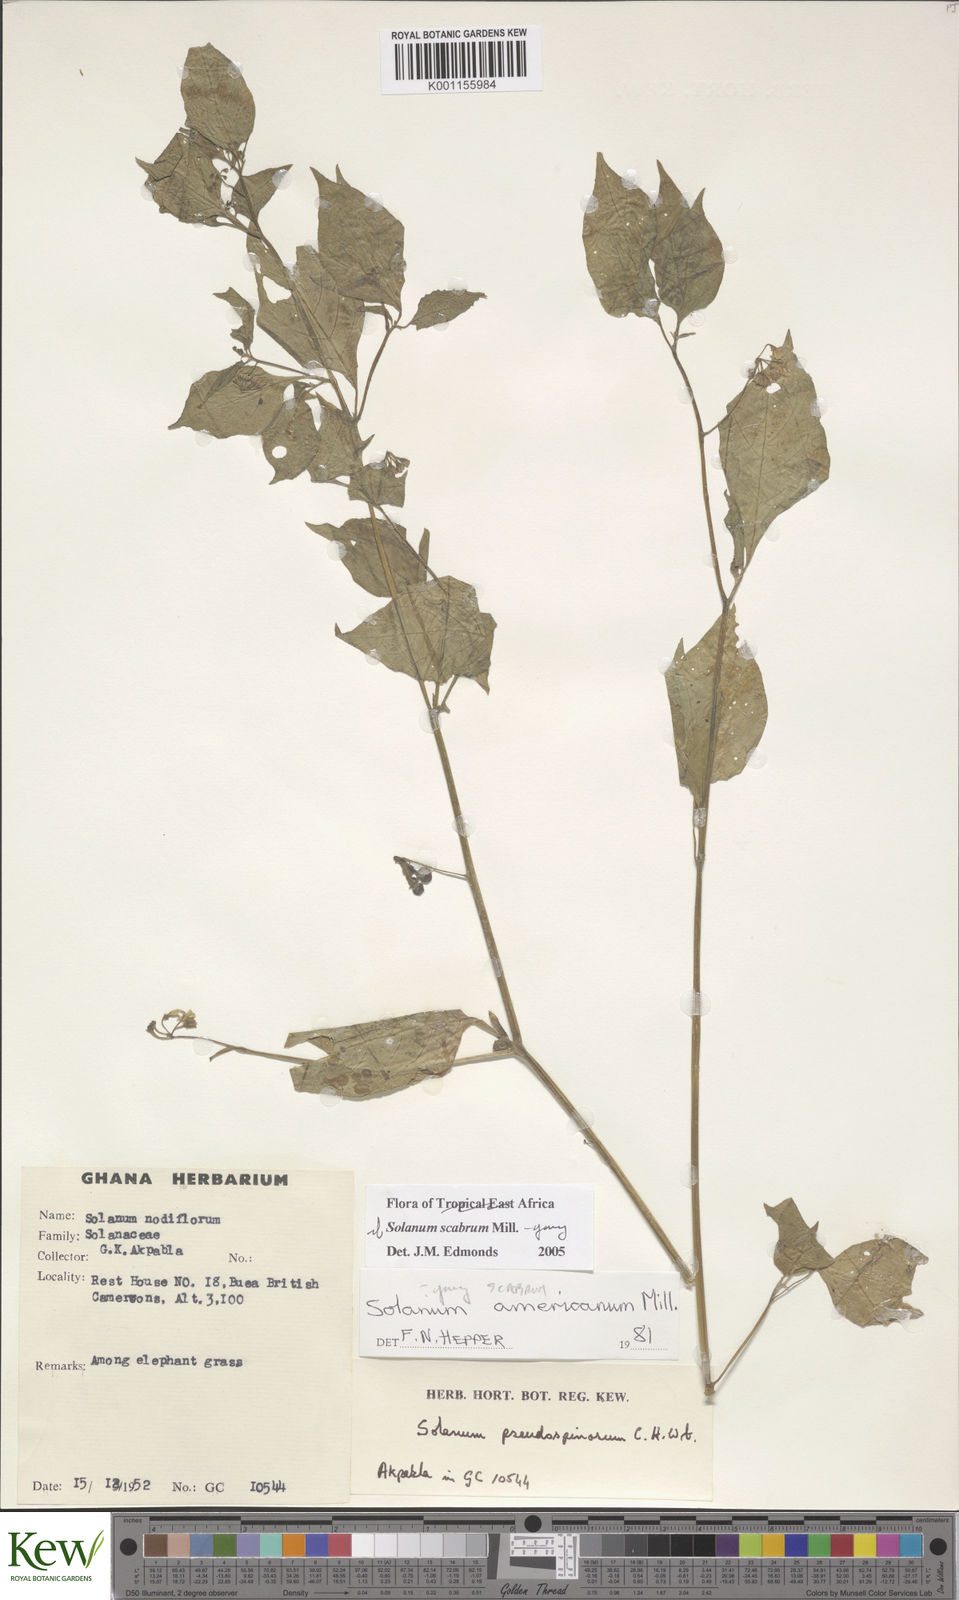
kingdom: Plantae
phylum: Tracheophyta
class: Magnoliopsida
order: Solanales
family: Solanaceae
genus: Solanum
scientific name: Solanum scabrum
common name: Garden-huckleberry
